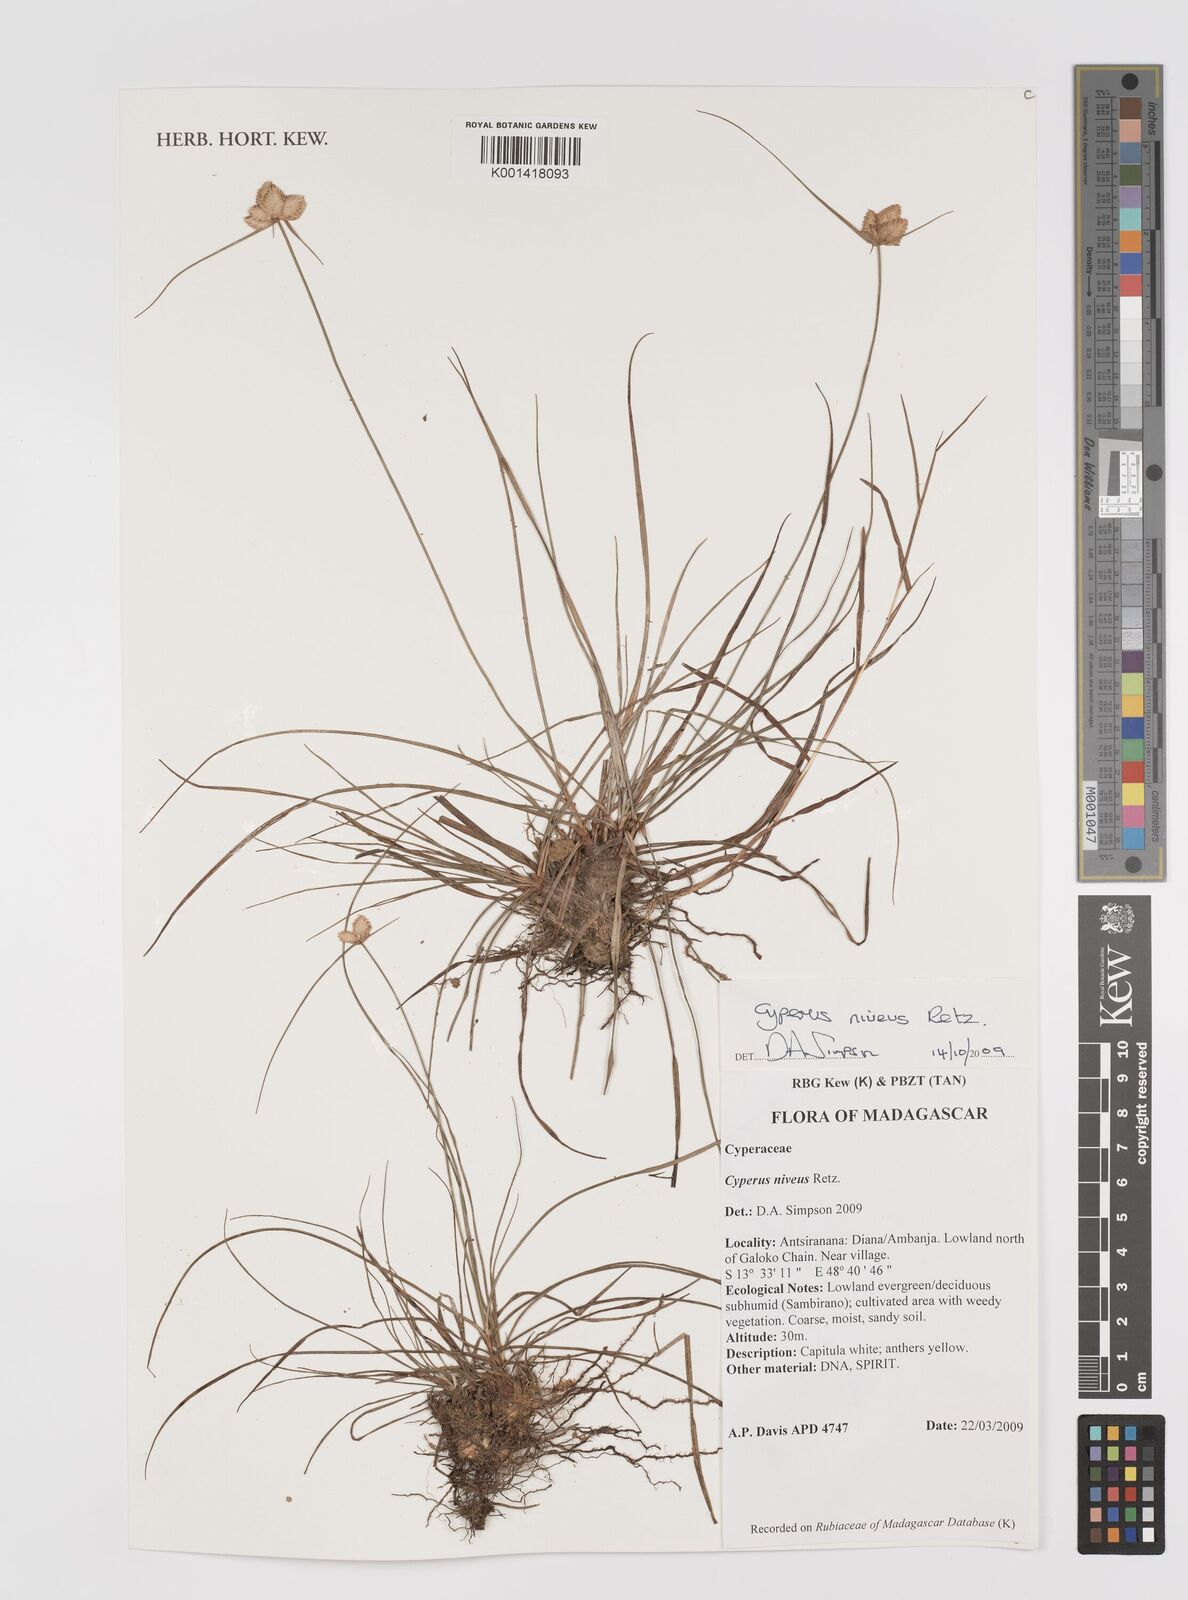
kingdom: Plantae
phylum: Tracheophyta
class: Liliopsida
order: Poales
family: Cyperaceae
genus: Cyperus
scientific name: Cyperus niveus
